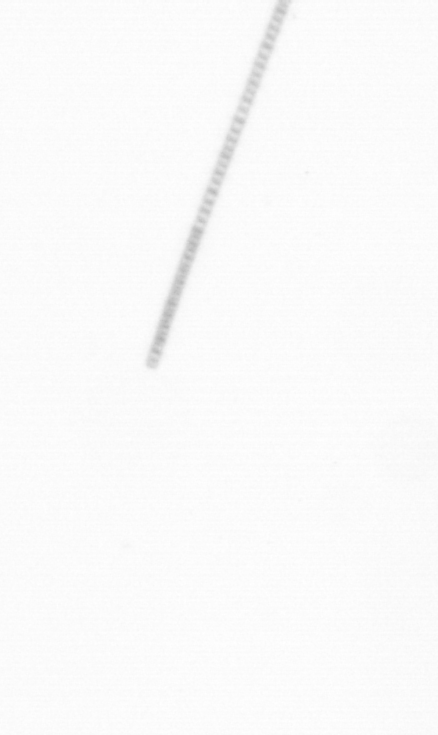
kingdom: Chromista
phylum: Ochrophyta
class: Bacillariophyceae
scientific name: Bacillariophyceae
